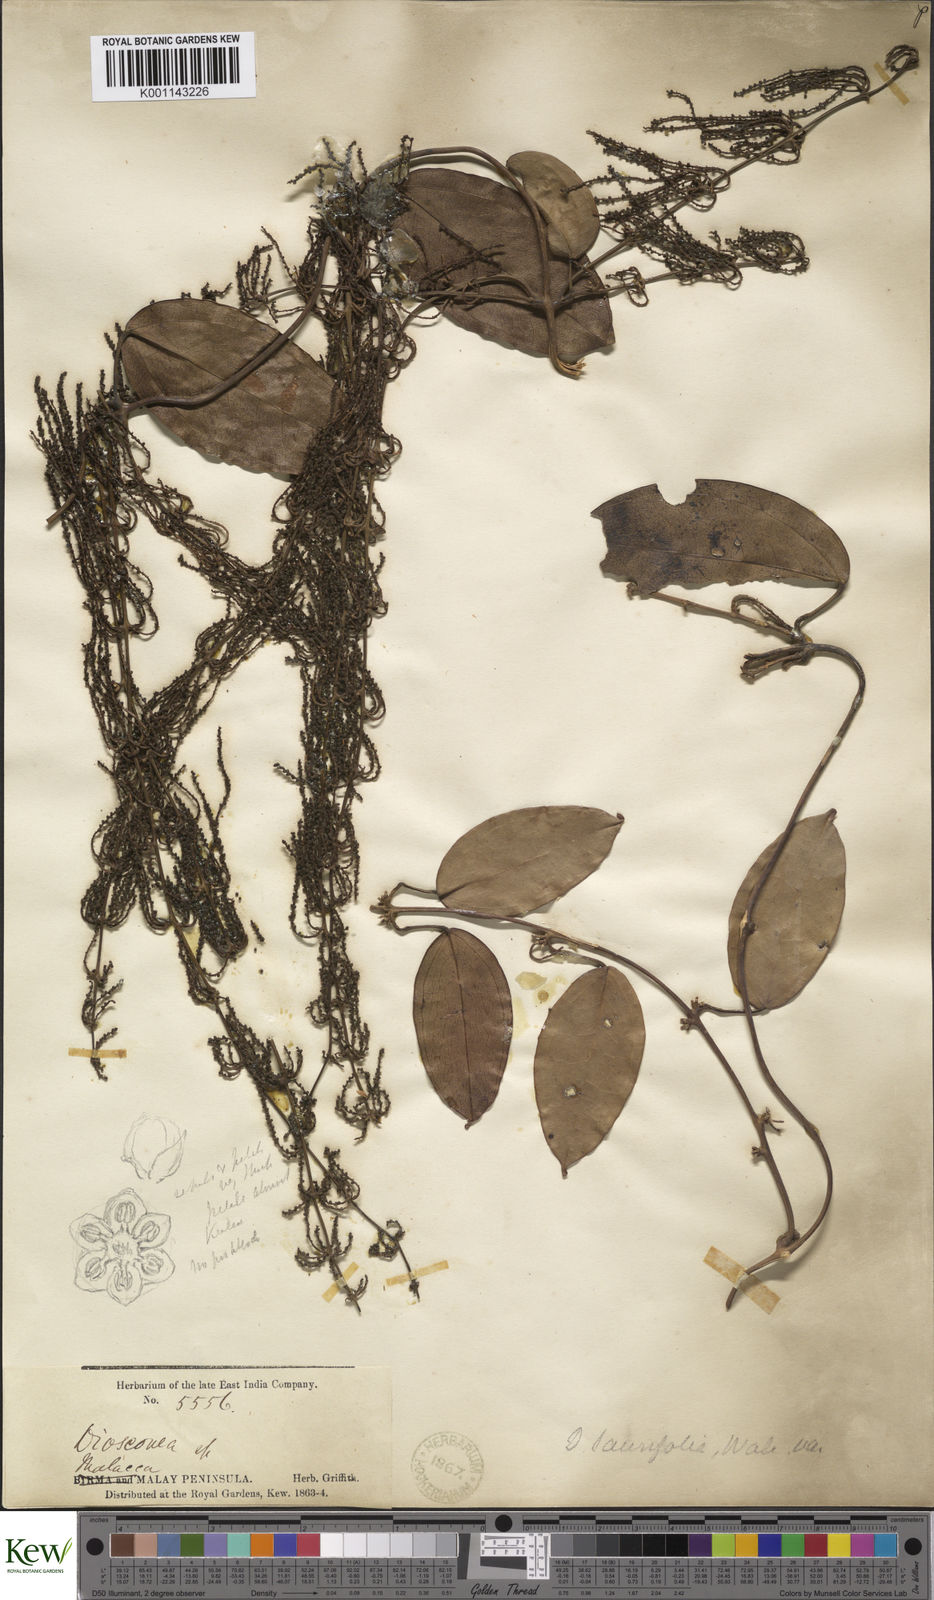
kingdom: Plantae
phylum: Tracheophyta
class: Liliopsida
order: Dioscoreales
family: Dioscoreaceae
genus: Dioscorea
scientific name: Dioscorea laurifolia
